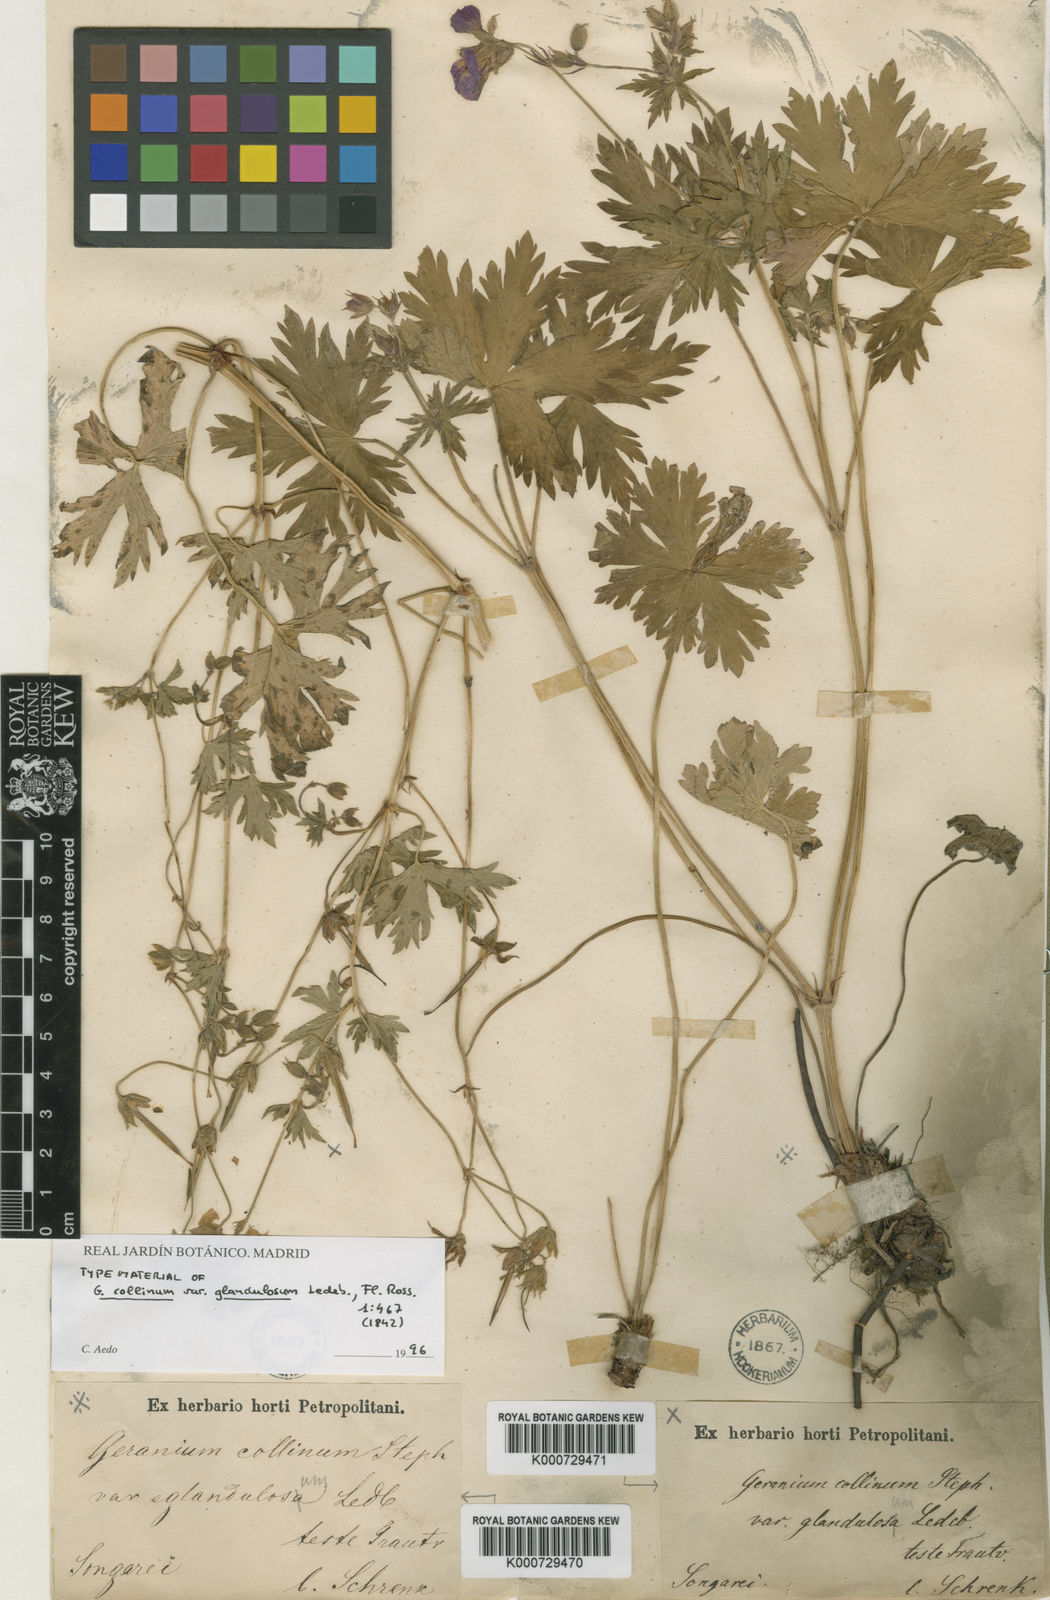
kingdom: Plantae
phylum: Tracheophyta
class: Magnoliopsida
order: Geraniales
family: Geraniaceae
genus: Geranium
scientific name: Geranium collinum
